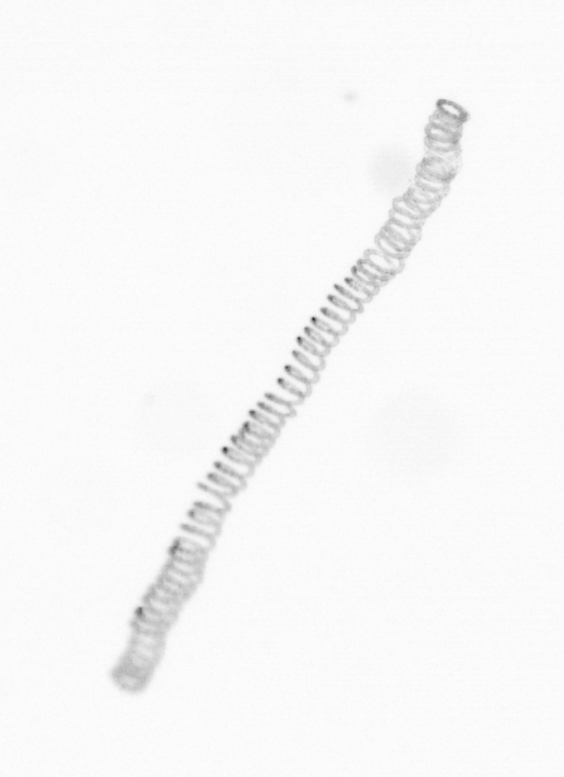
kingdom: Chromista
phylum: Ochrophyta
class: Bacillariophyceae
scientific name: Bacillariophyceae
